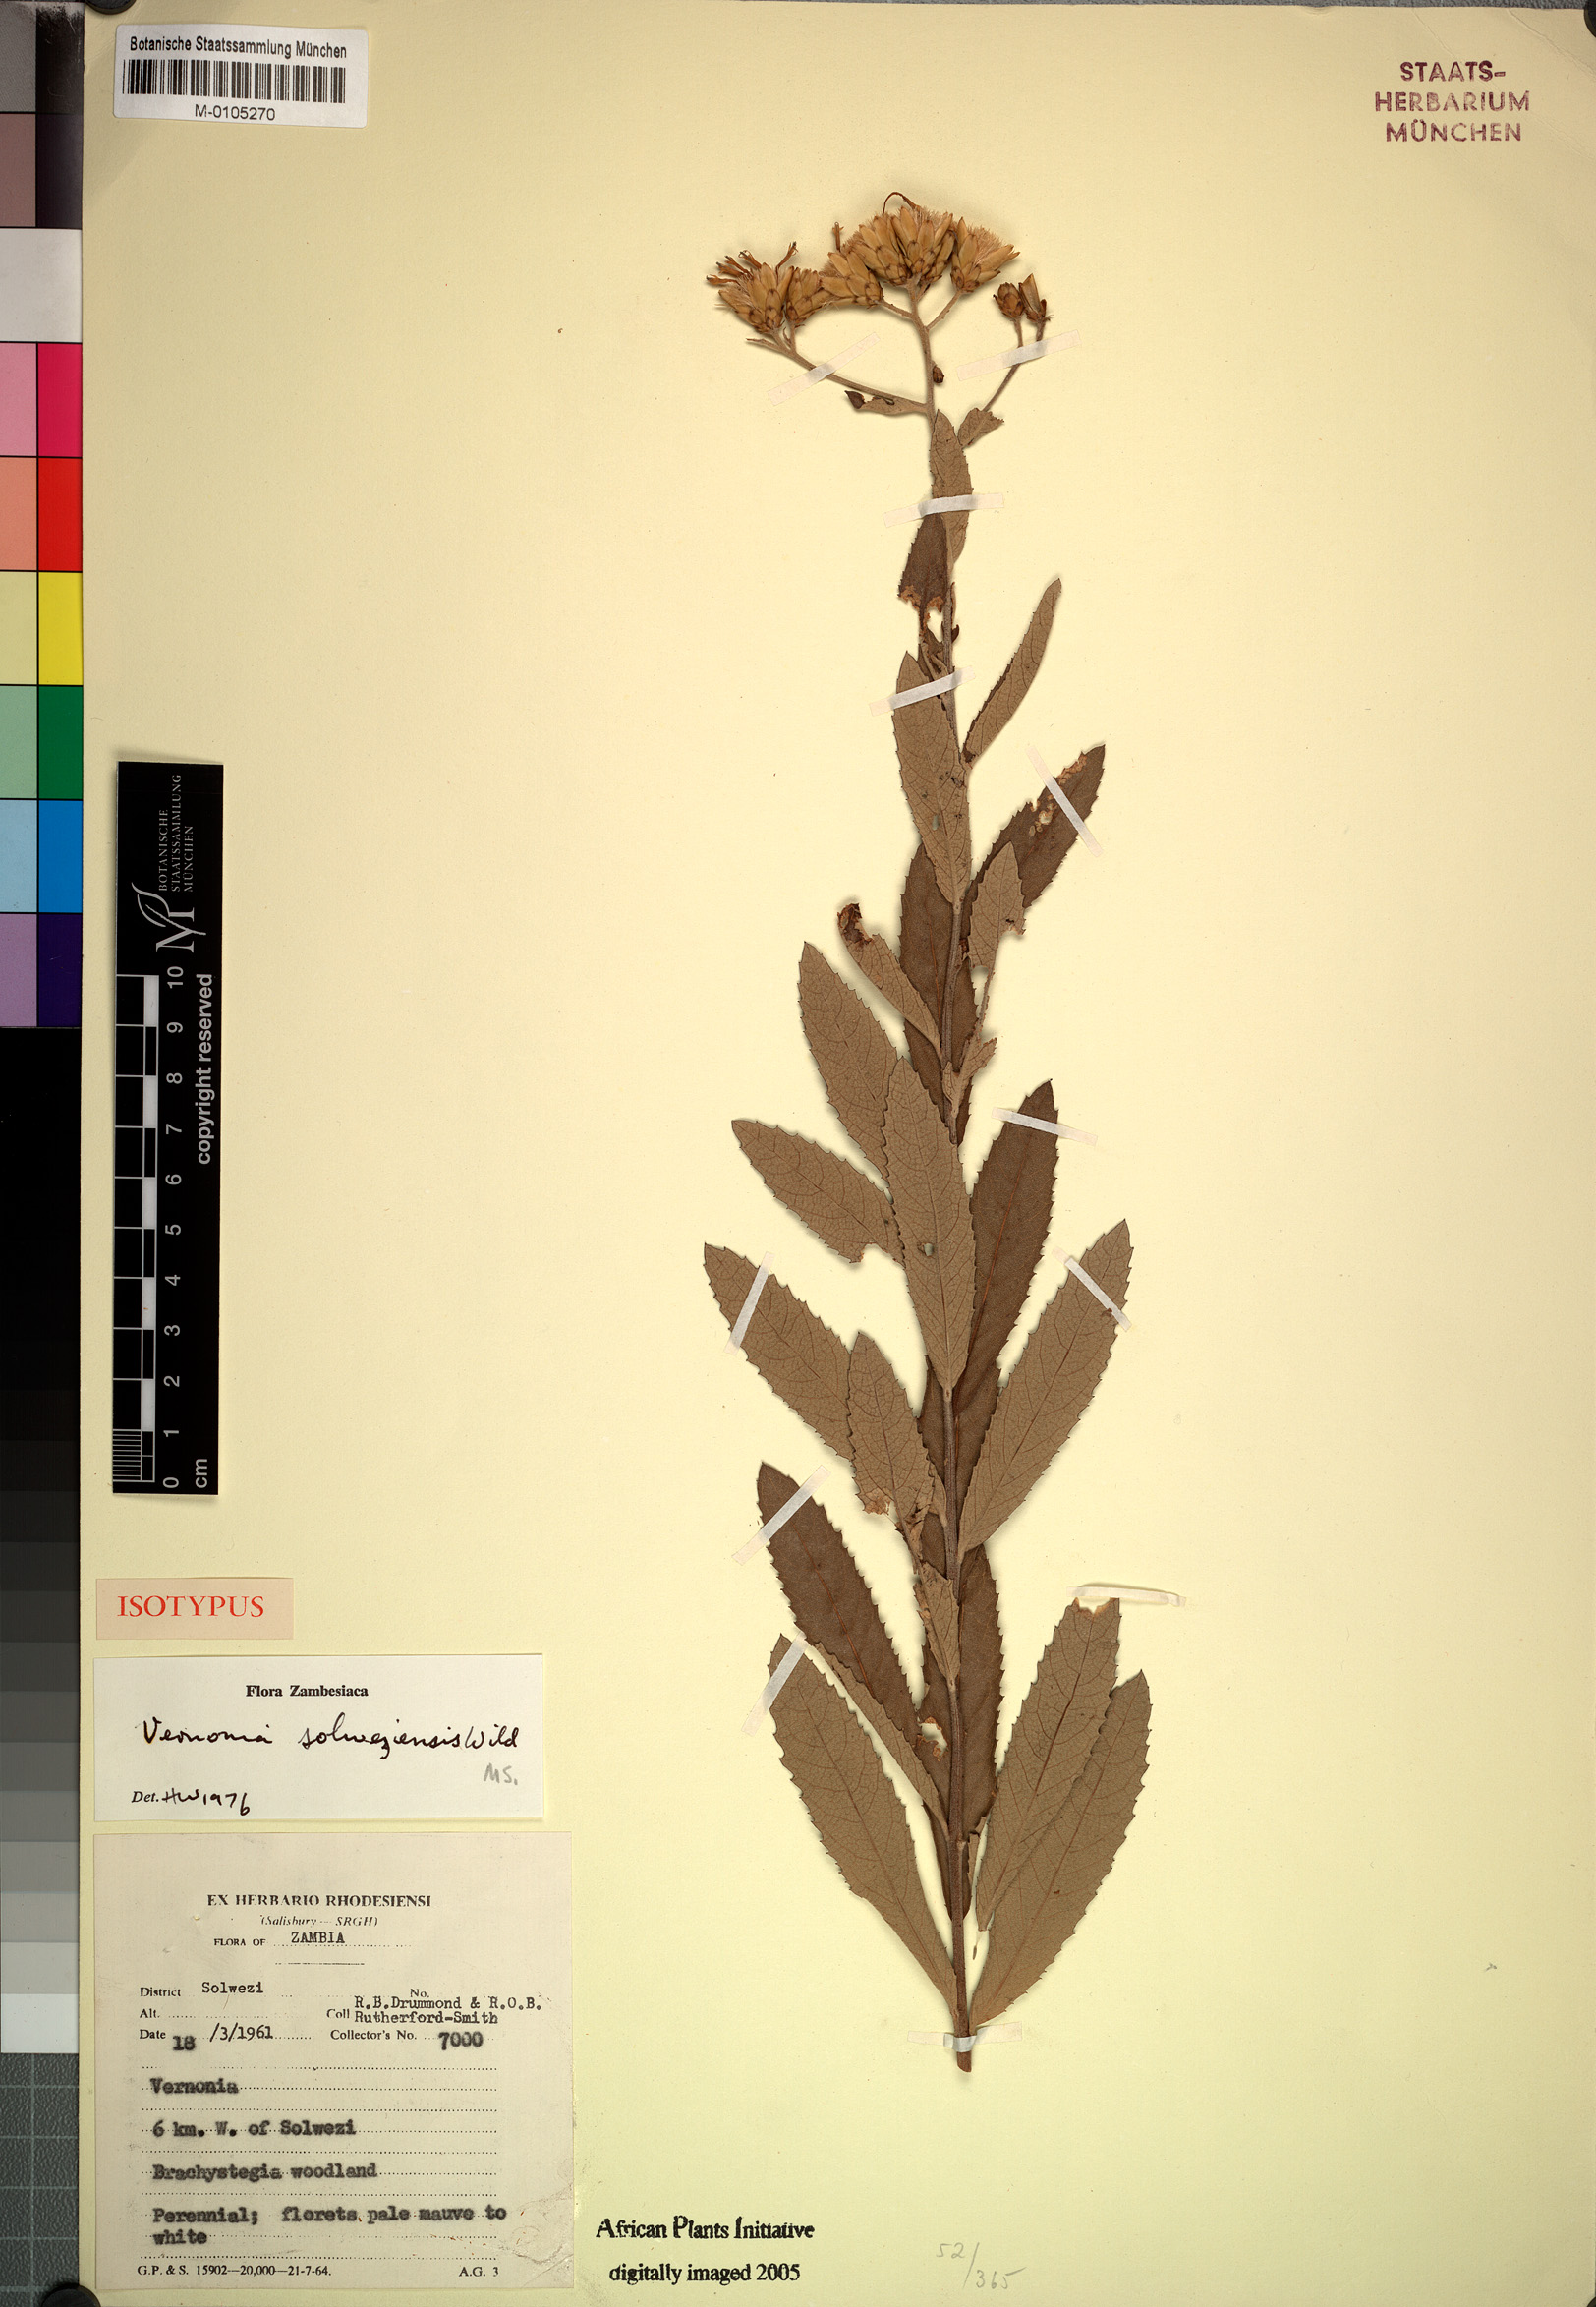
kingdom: Plantae
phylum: Tracheophyta
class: Magnoliopsida
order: Asterales
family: Asteraceae
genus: Vernonia
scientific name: Vernonia solweziensis
